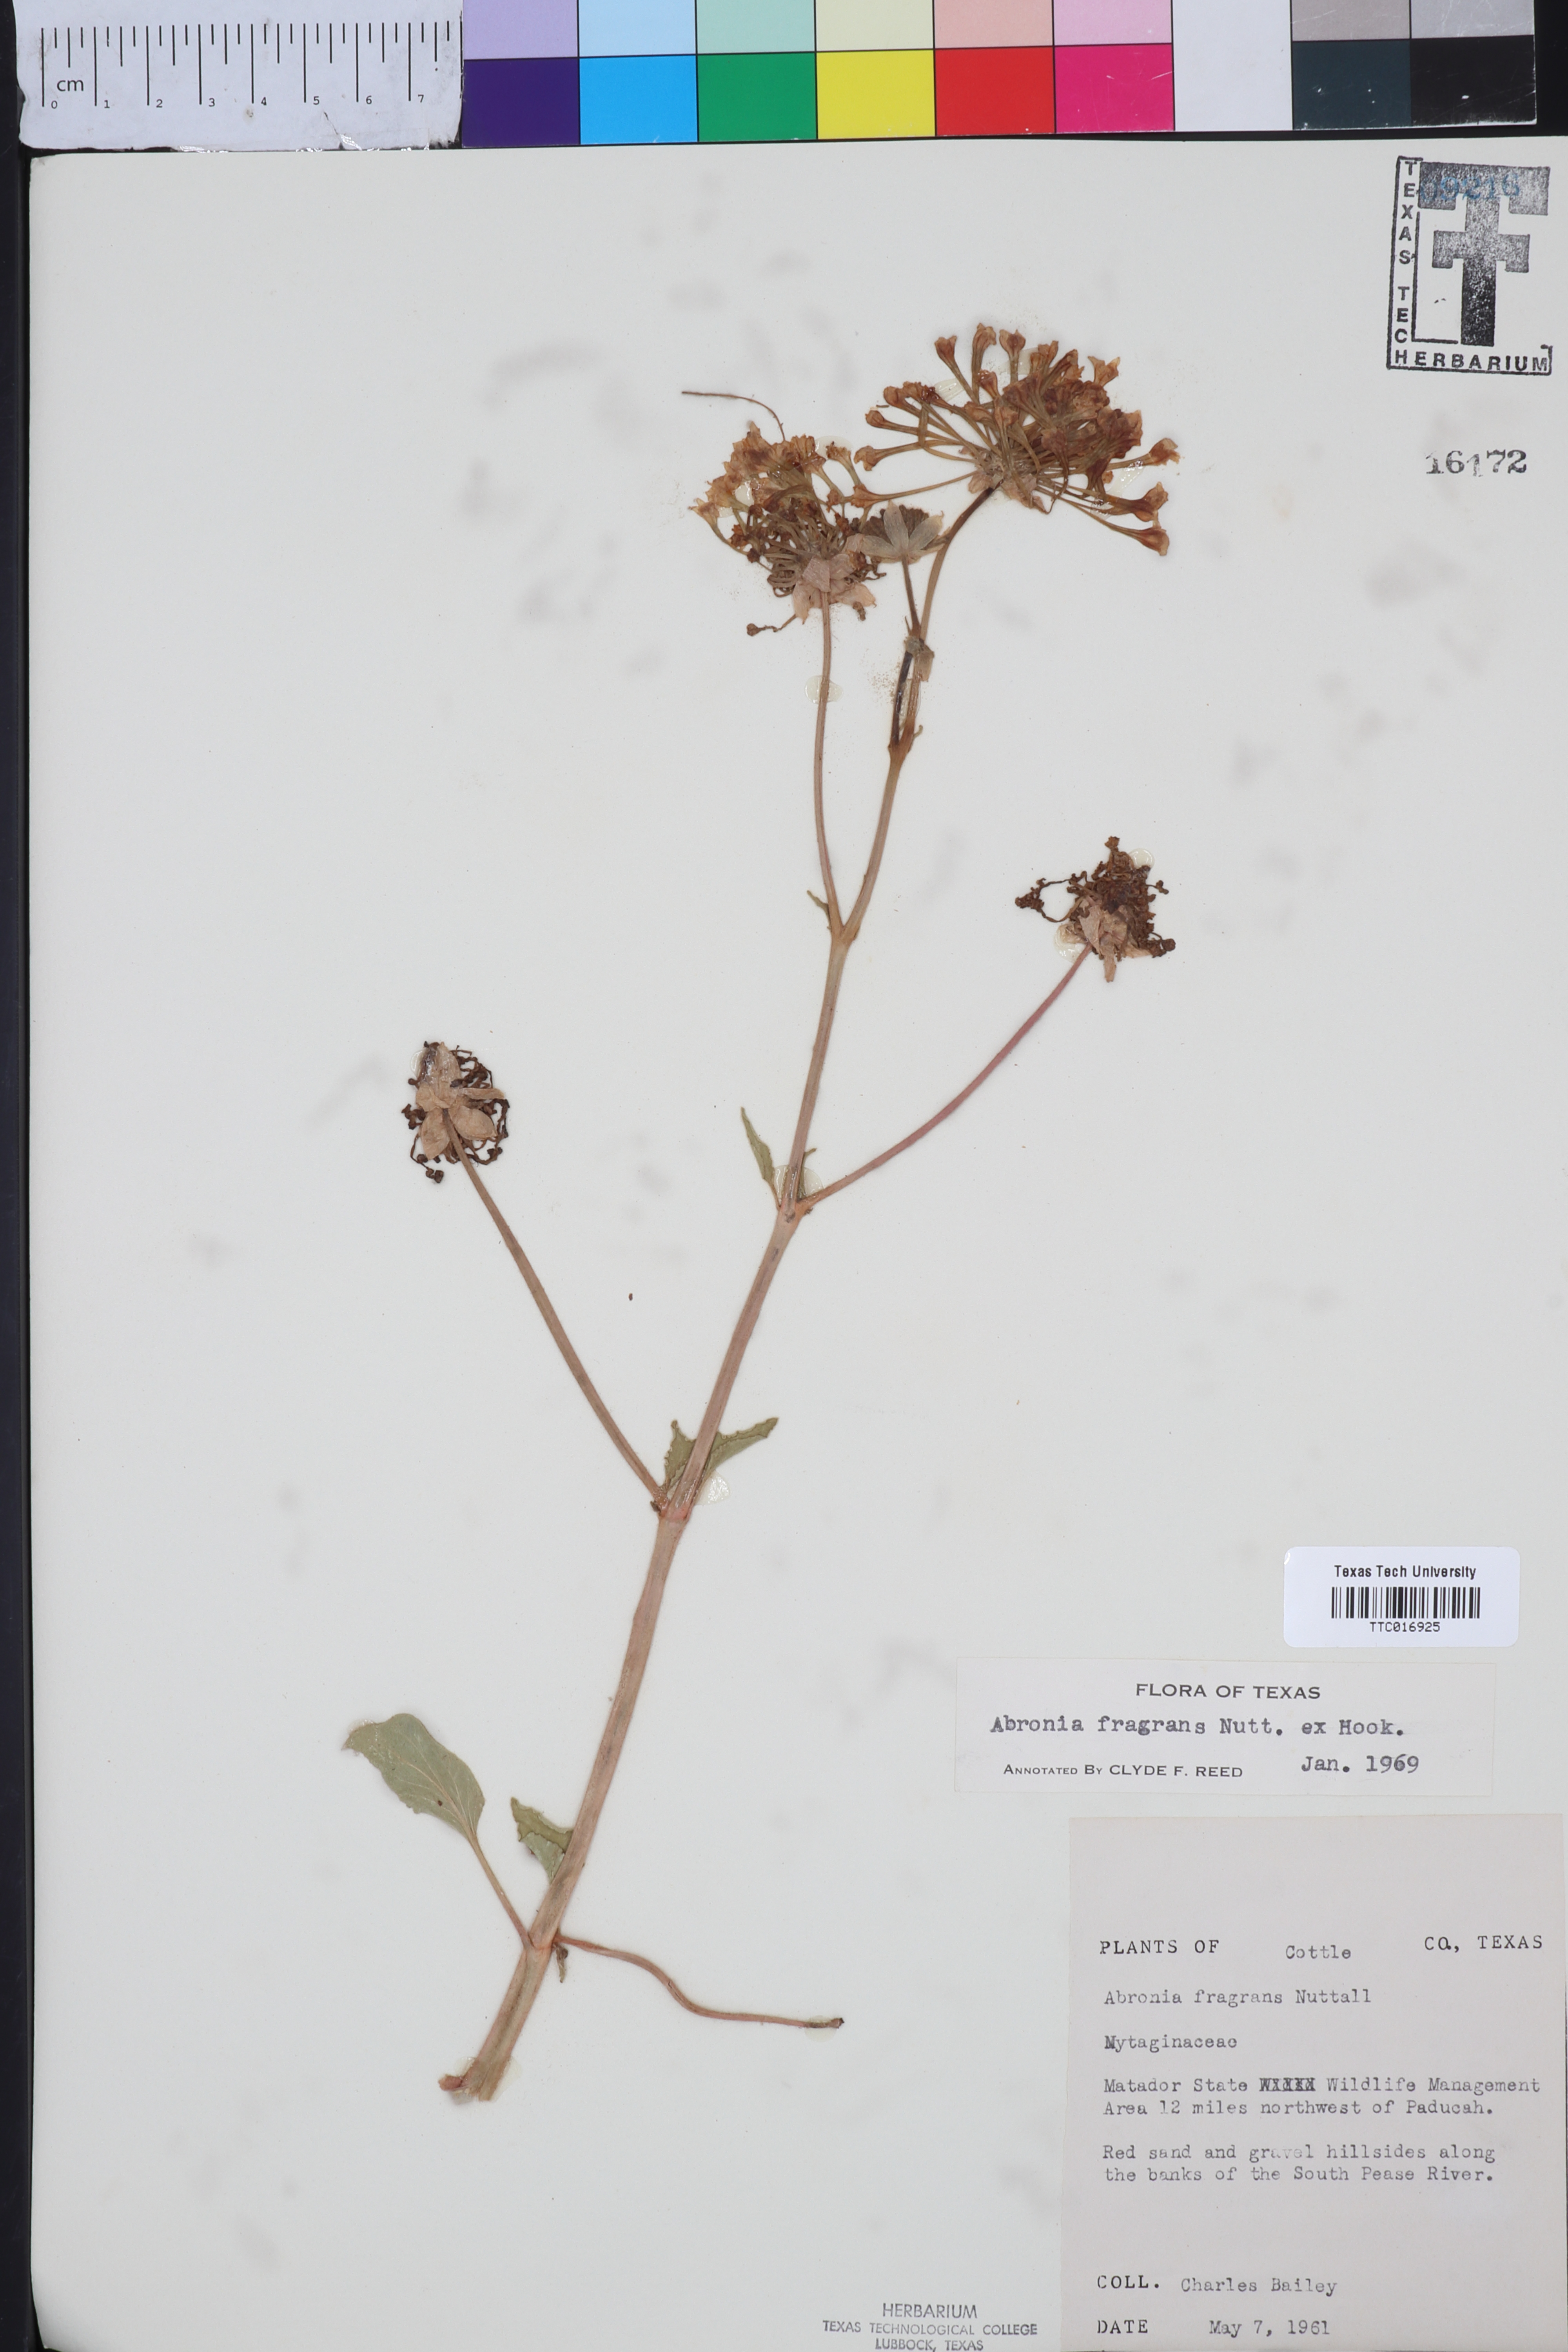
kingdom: Plantae
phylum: Tracheophyta
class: Magnoliopsida
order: Caryophyllales
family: Nyctaginaceae
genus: Abronia
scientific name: Abronia fragrans
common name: Fragrant sand-verbena
